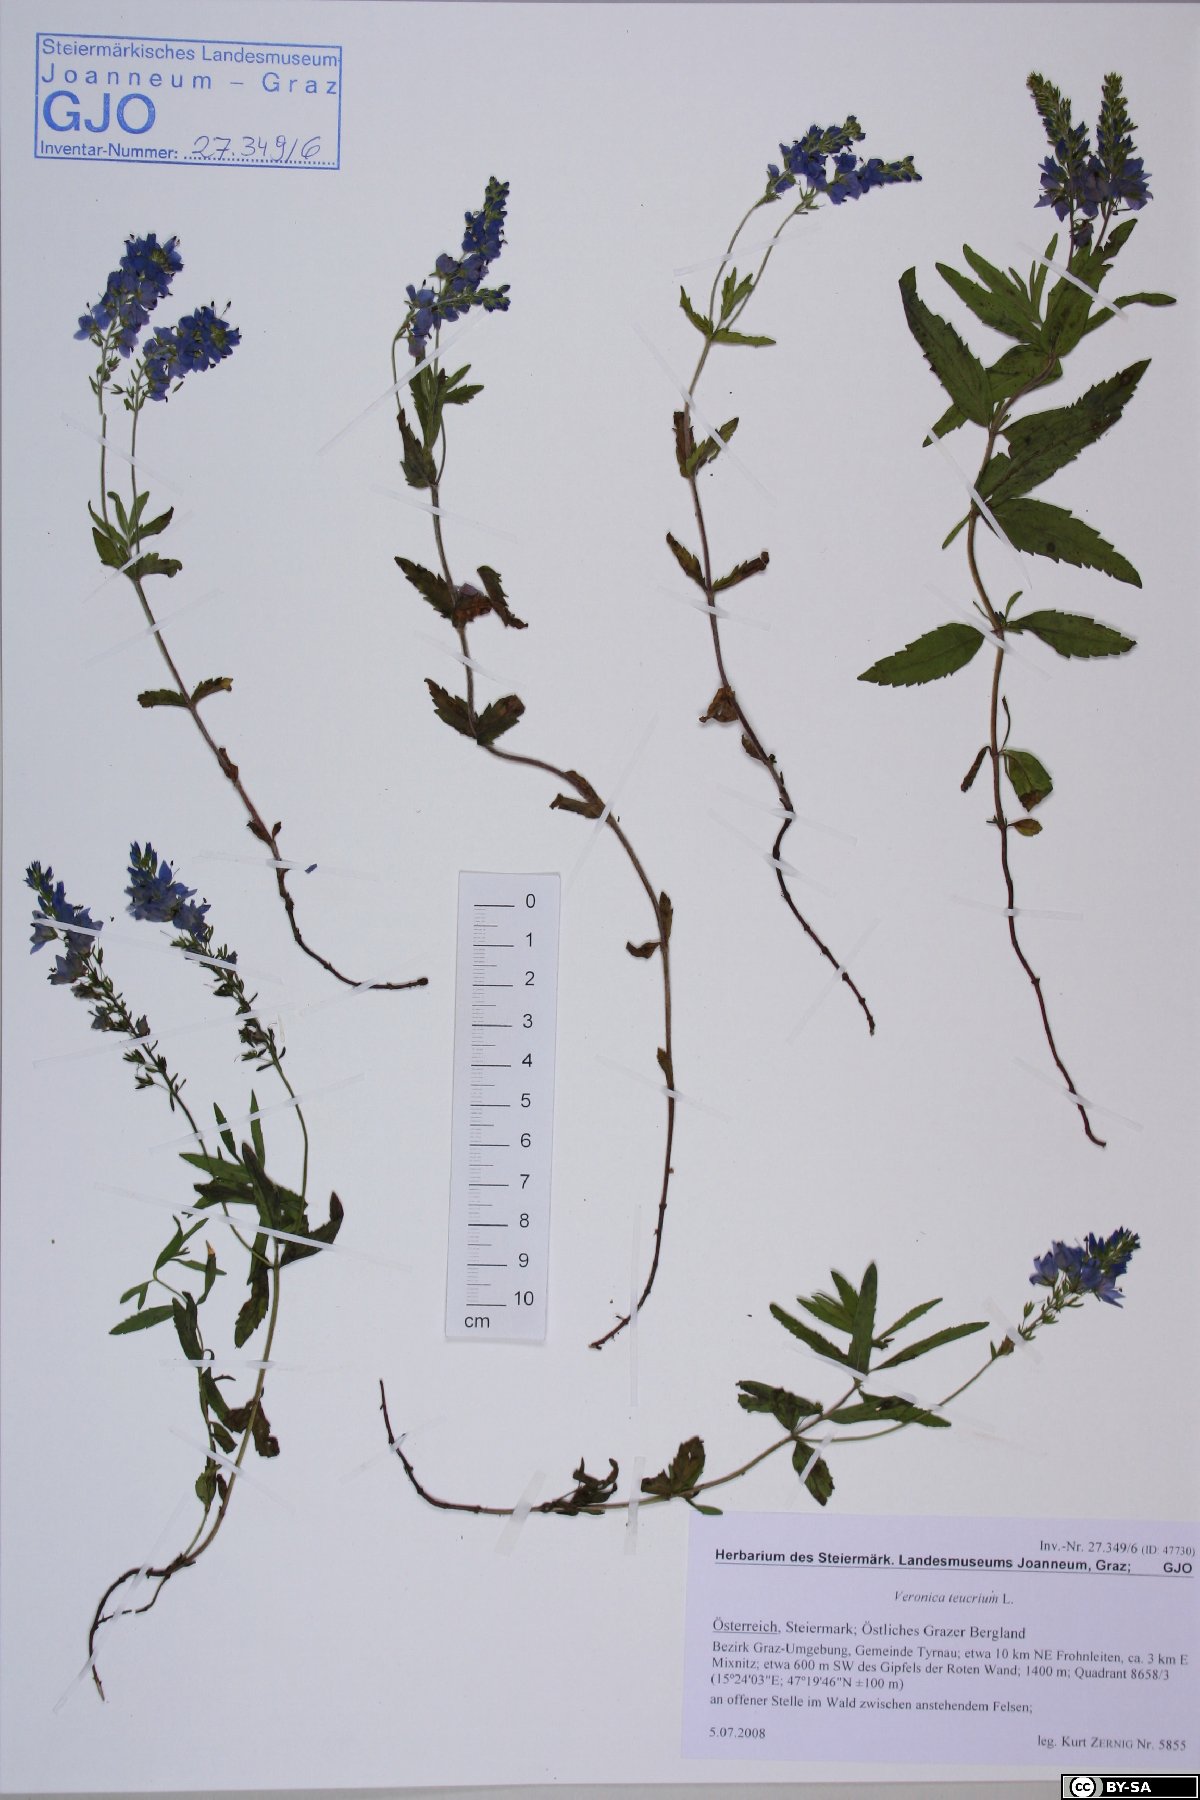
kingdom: Plantae
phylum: Tracheophyta
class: Magnoliopsida
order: Lamiales
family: Plantaginaceae
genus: Veronica
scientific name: Veronica teucrium
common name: Large speedwell
